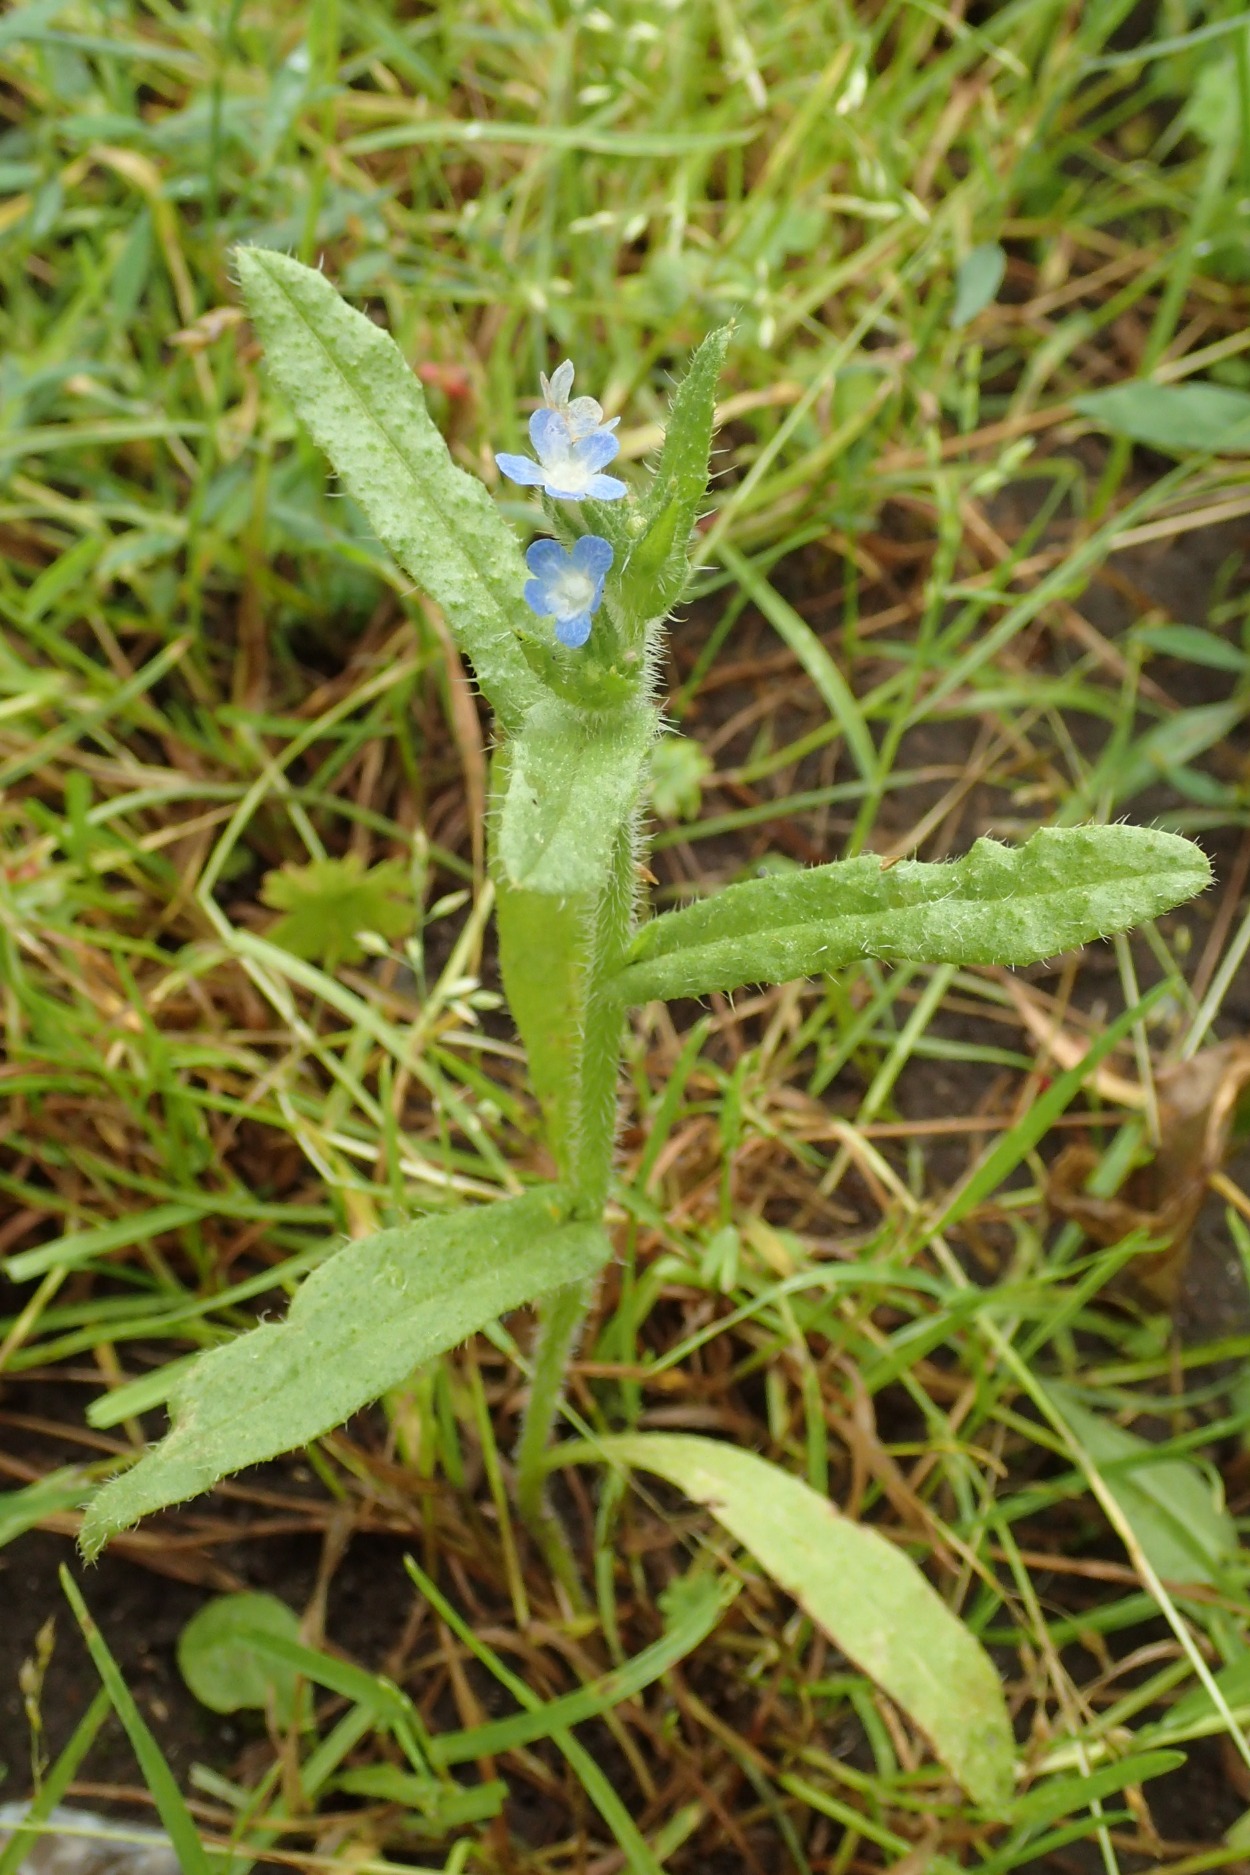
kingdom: Plantae
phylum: Tracheophyta
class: Magnoliopsida
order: Boraginales
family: Boraginaceae
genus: Lycopsis
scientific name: Lycopsis arvensis
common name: Krumhals
